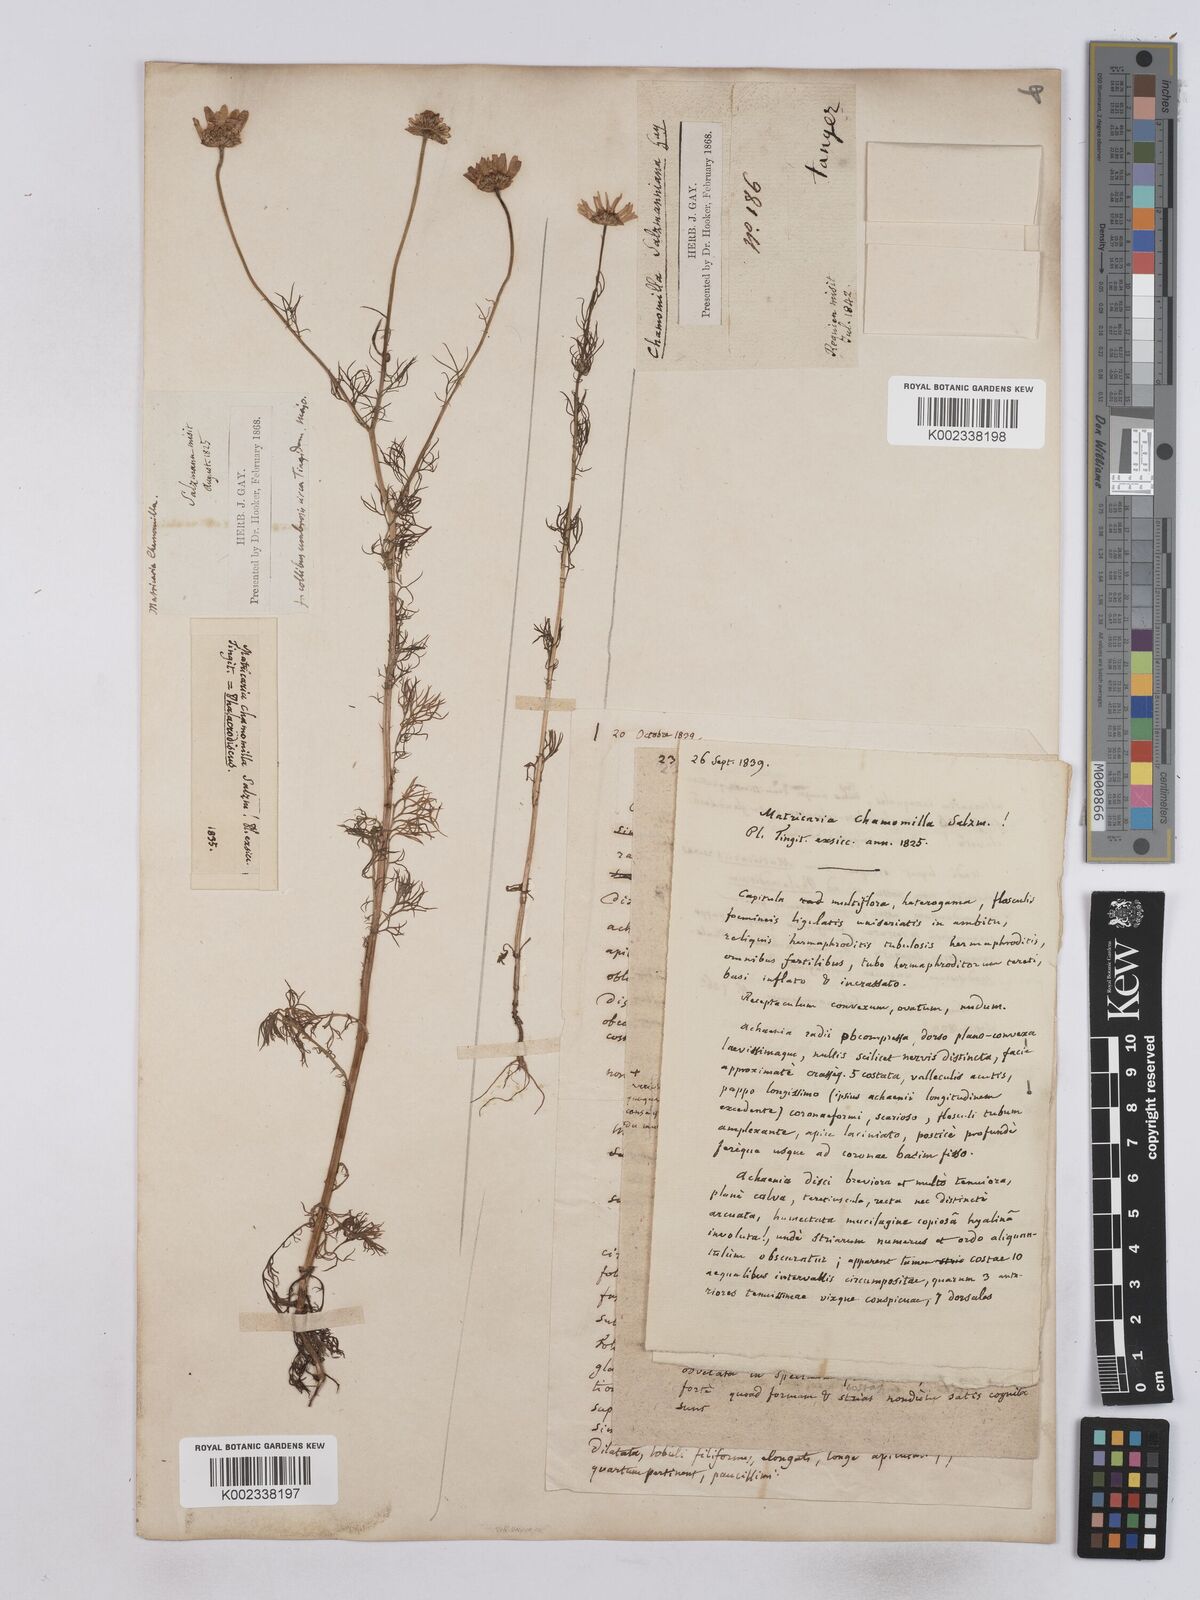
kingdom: Plantae
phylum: Tracheophyta
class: Magnoliopsida
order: Asterales
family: Asteraceae
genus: Matricaria
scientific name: Matricaria chamomilla
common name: Scented mayweed
